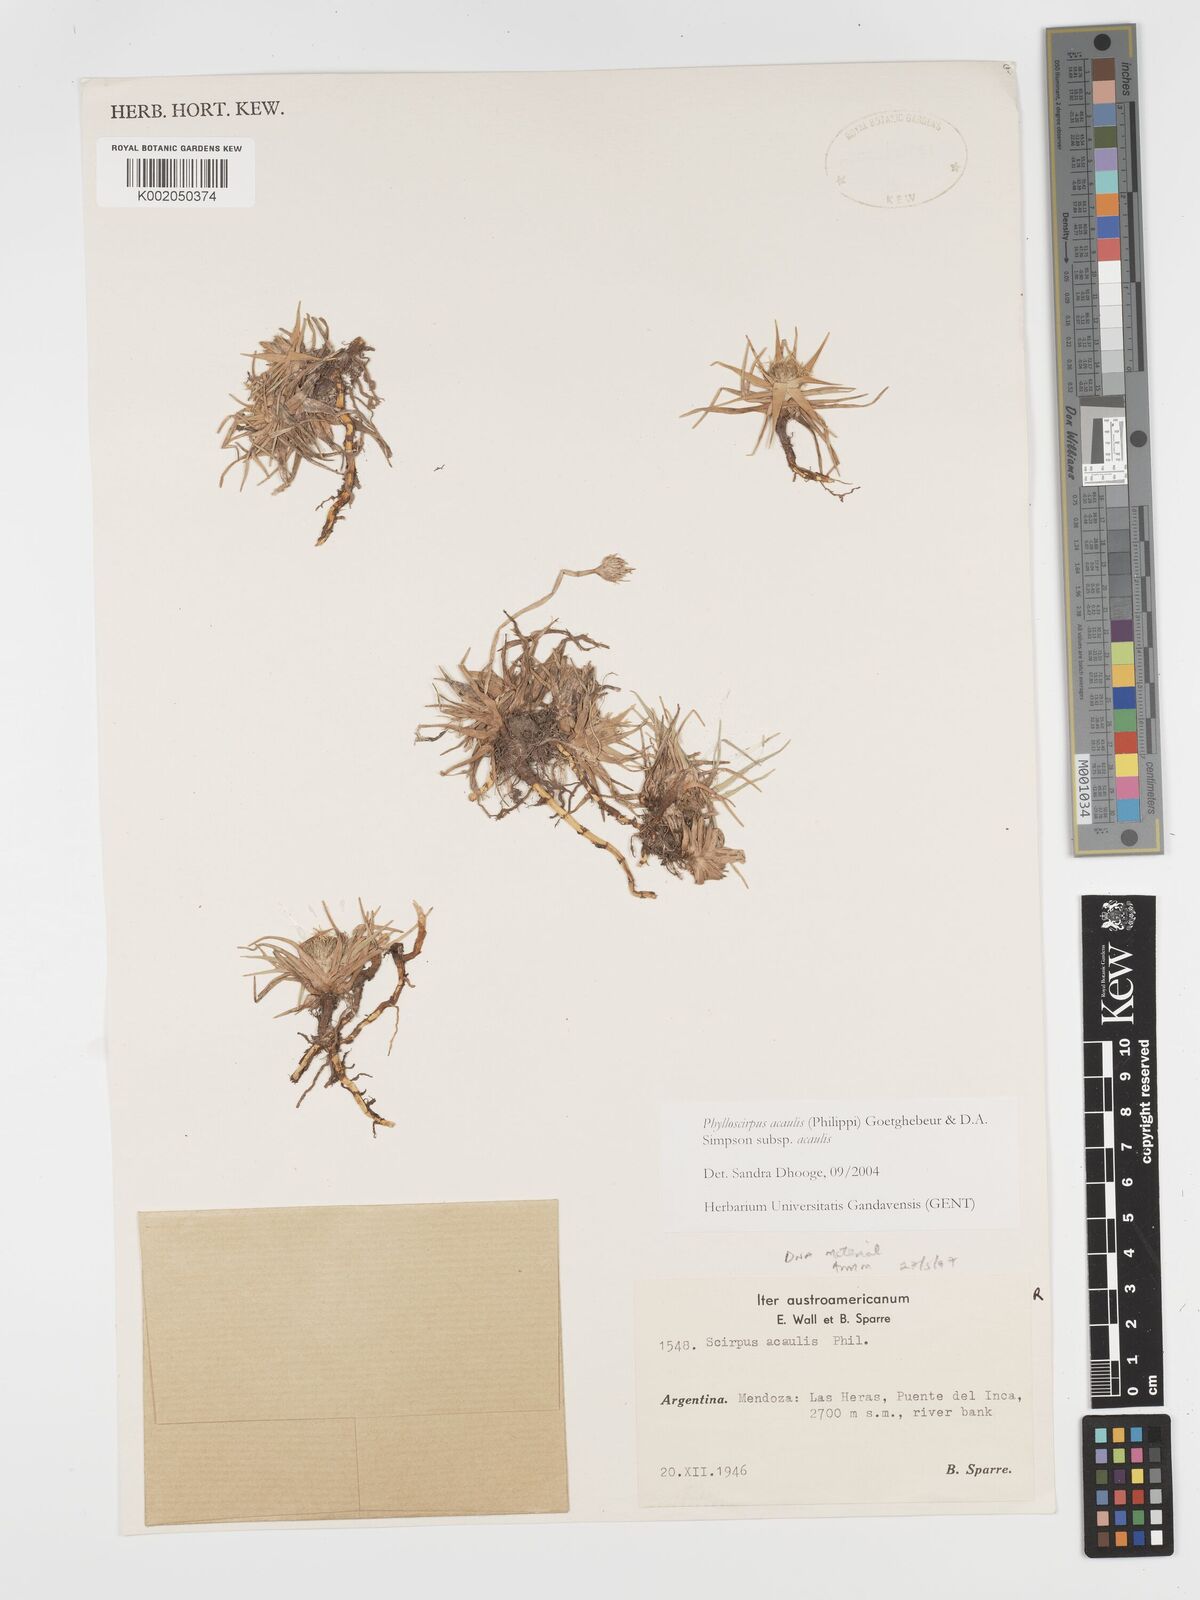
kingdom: Plantae
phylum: Tracheophyta
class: Liliopsida
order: Poales
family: Cyperaceae
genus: Phylloscirpus
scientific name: Phylloscirpus acaulis
